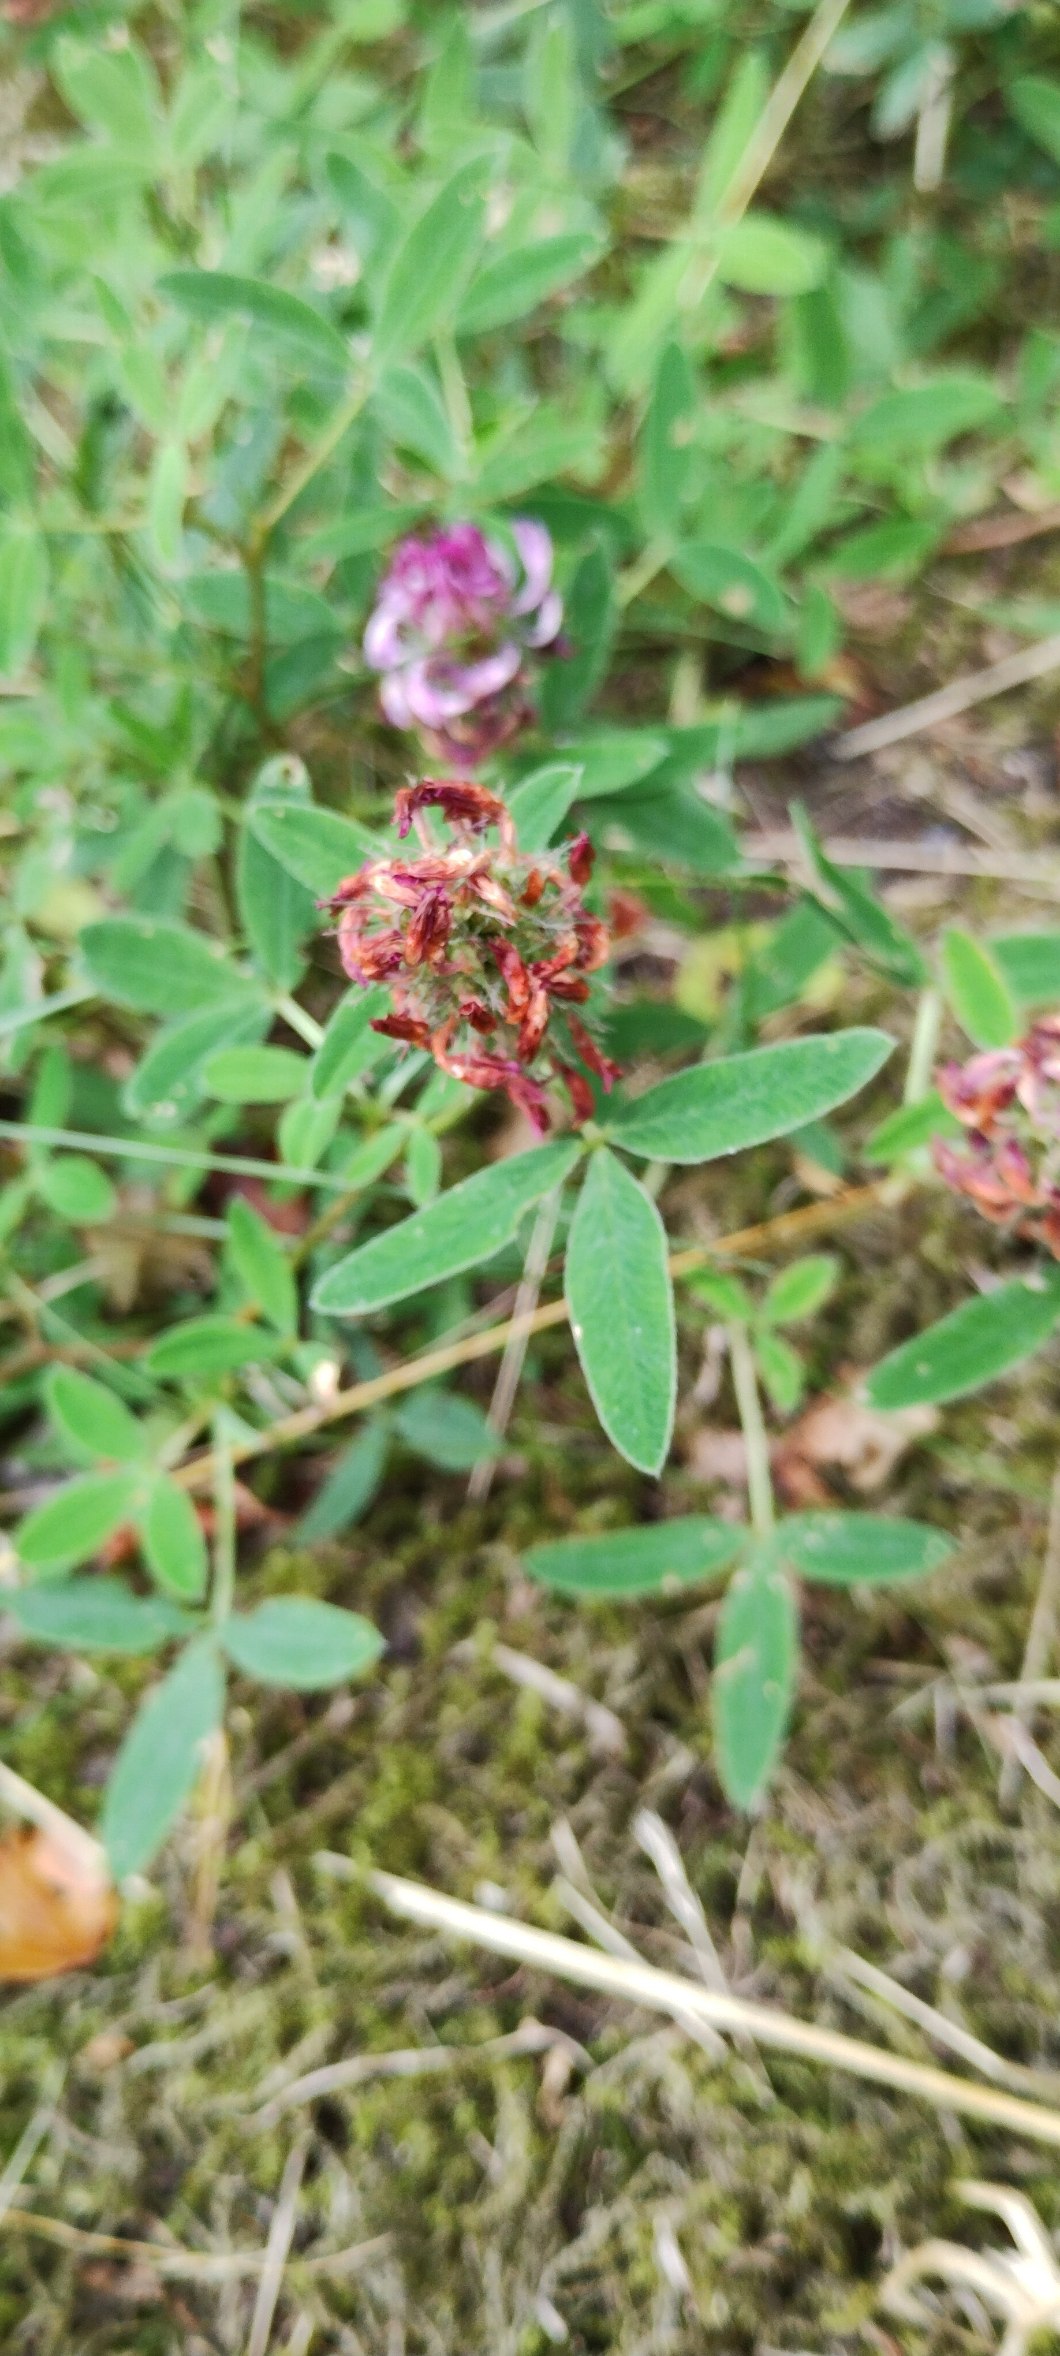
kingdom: Plantae
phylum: Tracheophyta
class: Magnoliopsida
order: Fabales
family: Fabaceae
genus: Trifolium
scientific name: Trifolium medium
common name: Bugtet kløver
